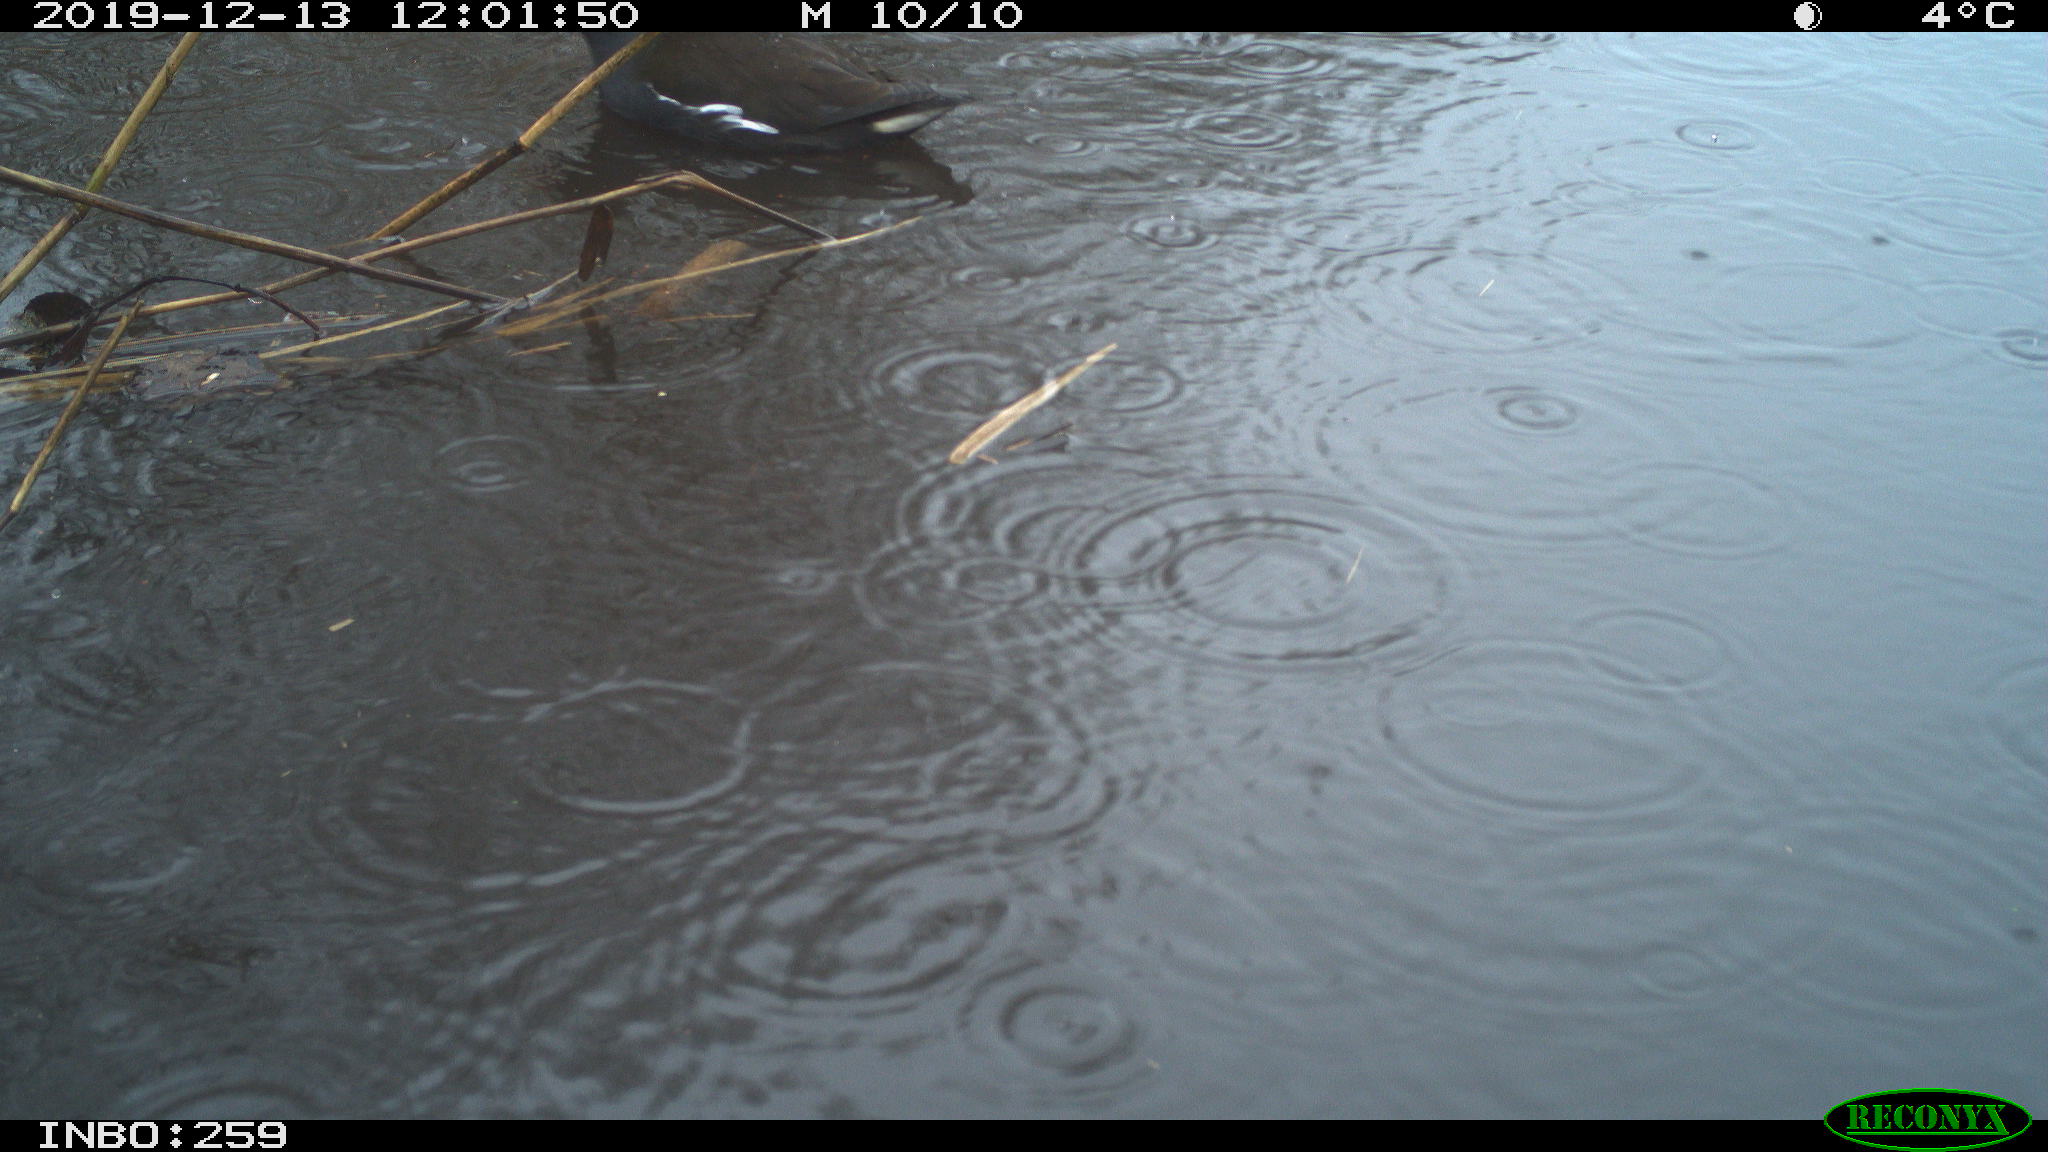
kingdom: Animalia
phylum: Chordata
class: Aves
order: Gruiformes
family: Rallidae
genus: Gallinula
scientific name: Gallinula chloropus
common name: Common moorhen
